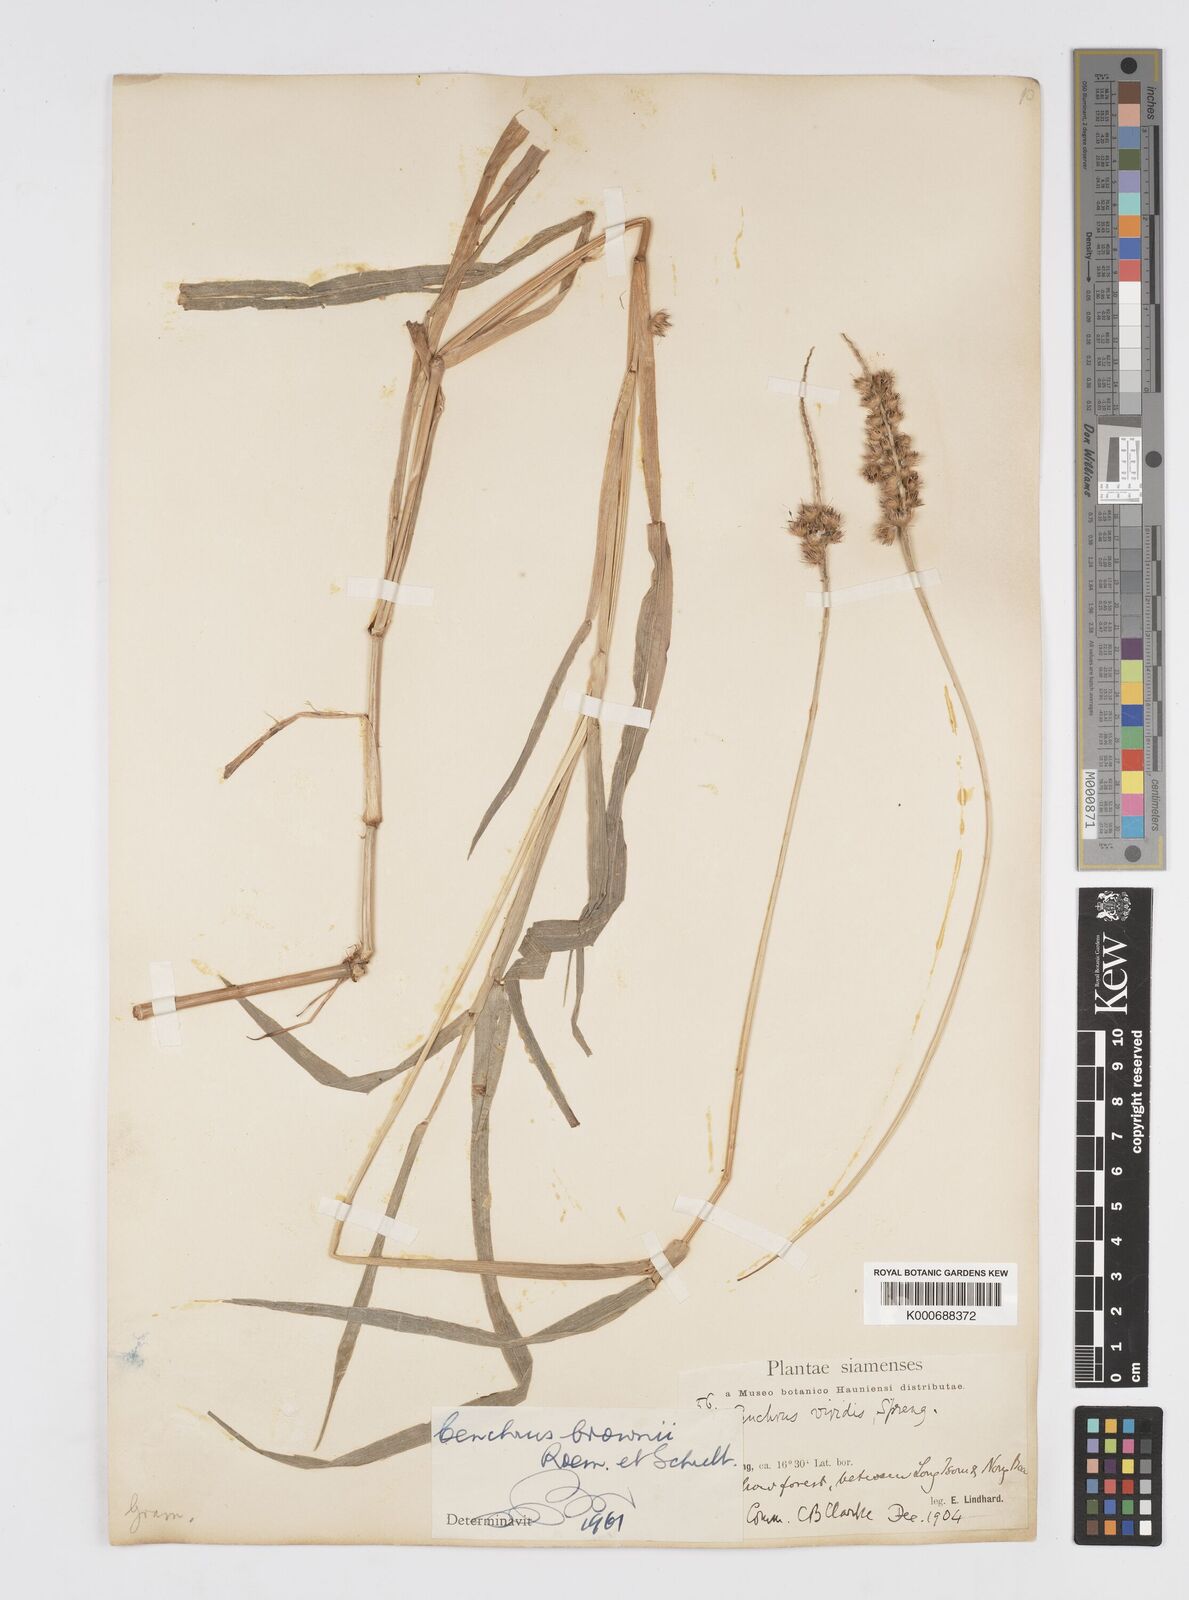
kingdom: Plantae
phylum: Tracheophyta
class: Liliopsida
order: Poales
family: Poaceae
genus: Cenchrus
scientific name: Cenchrus brownii
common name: Slim-bristle sandbur
